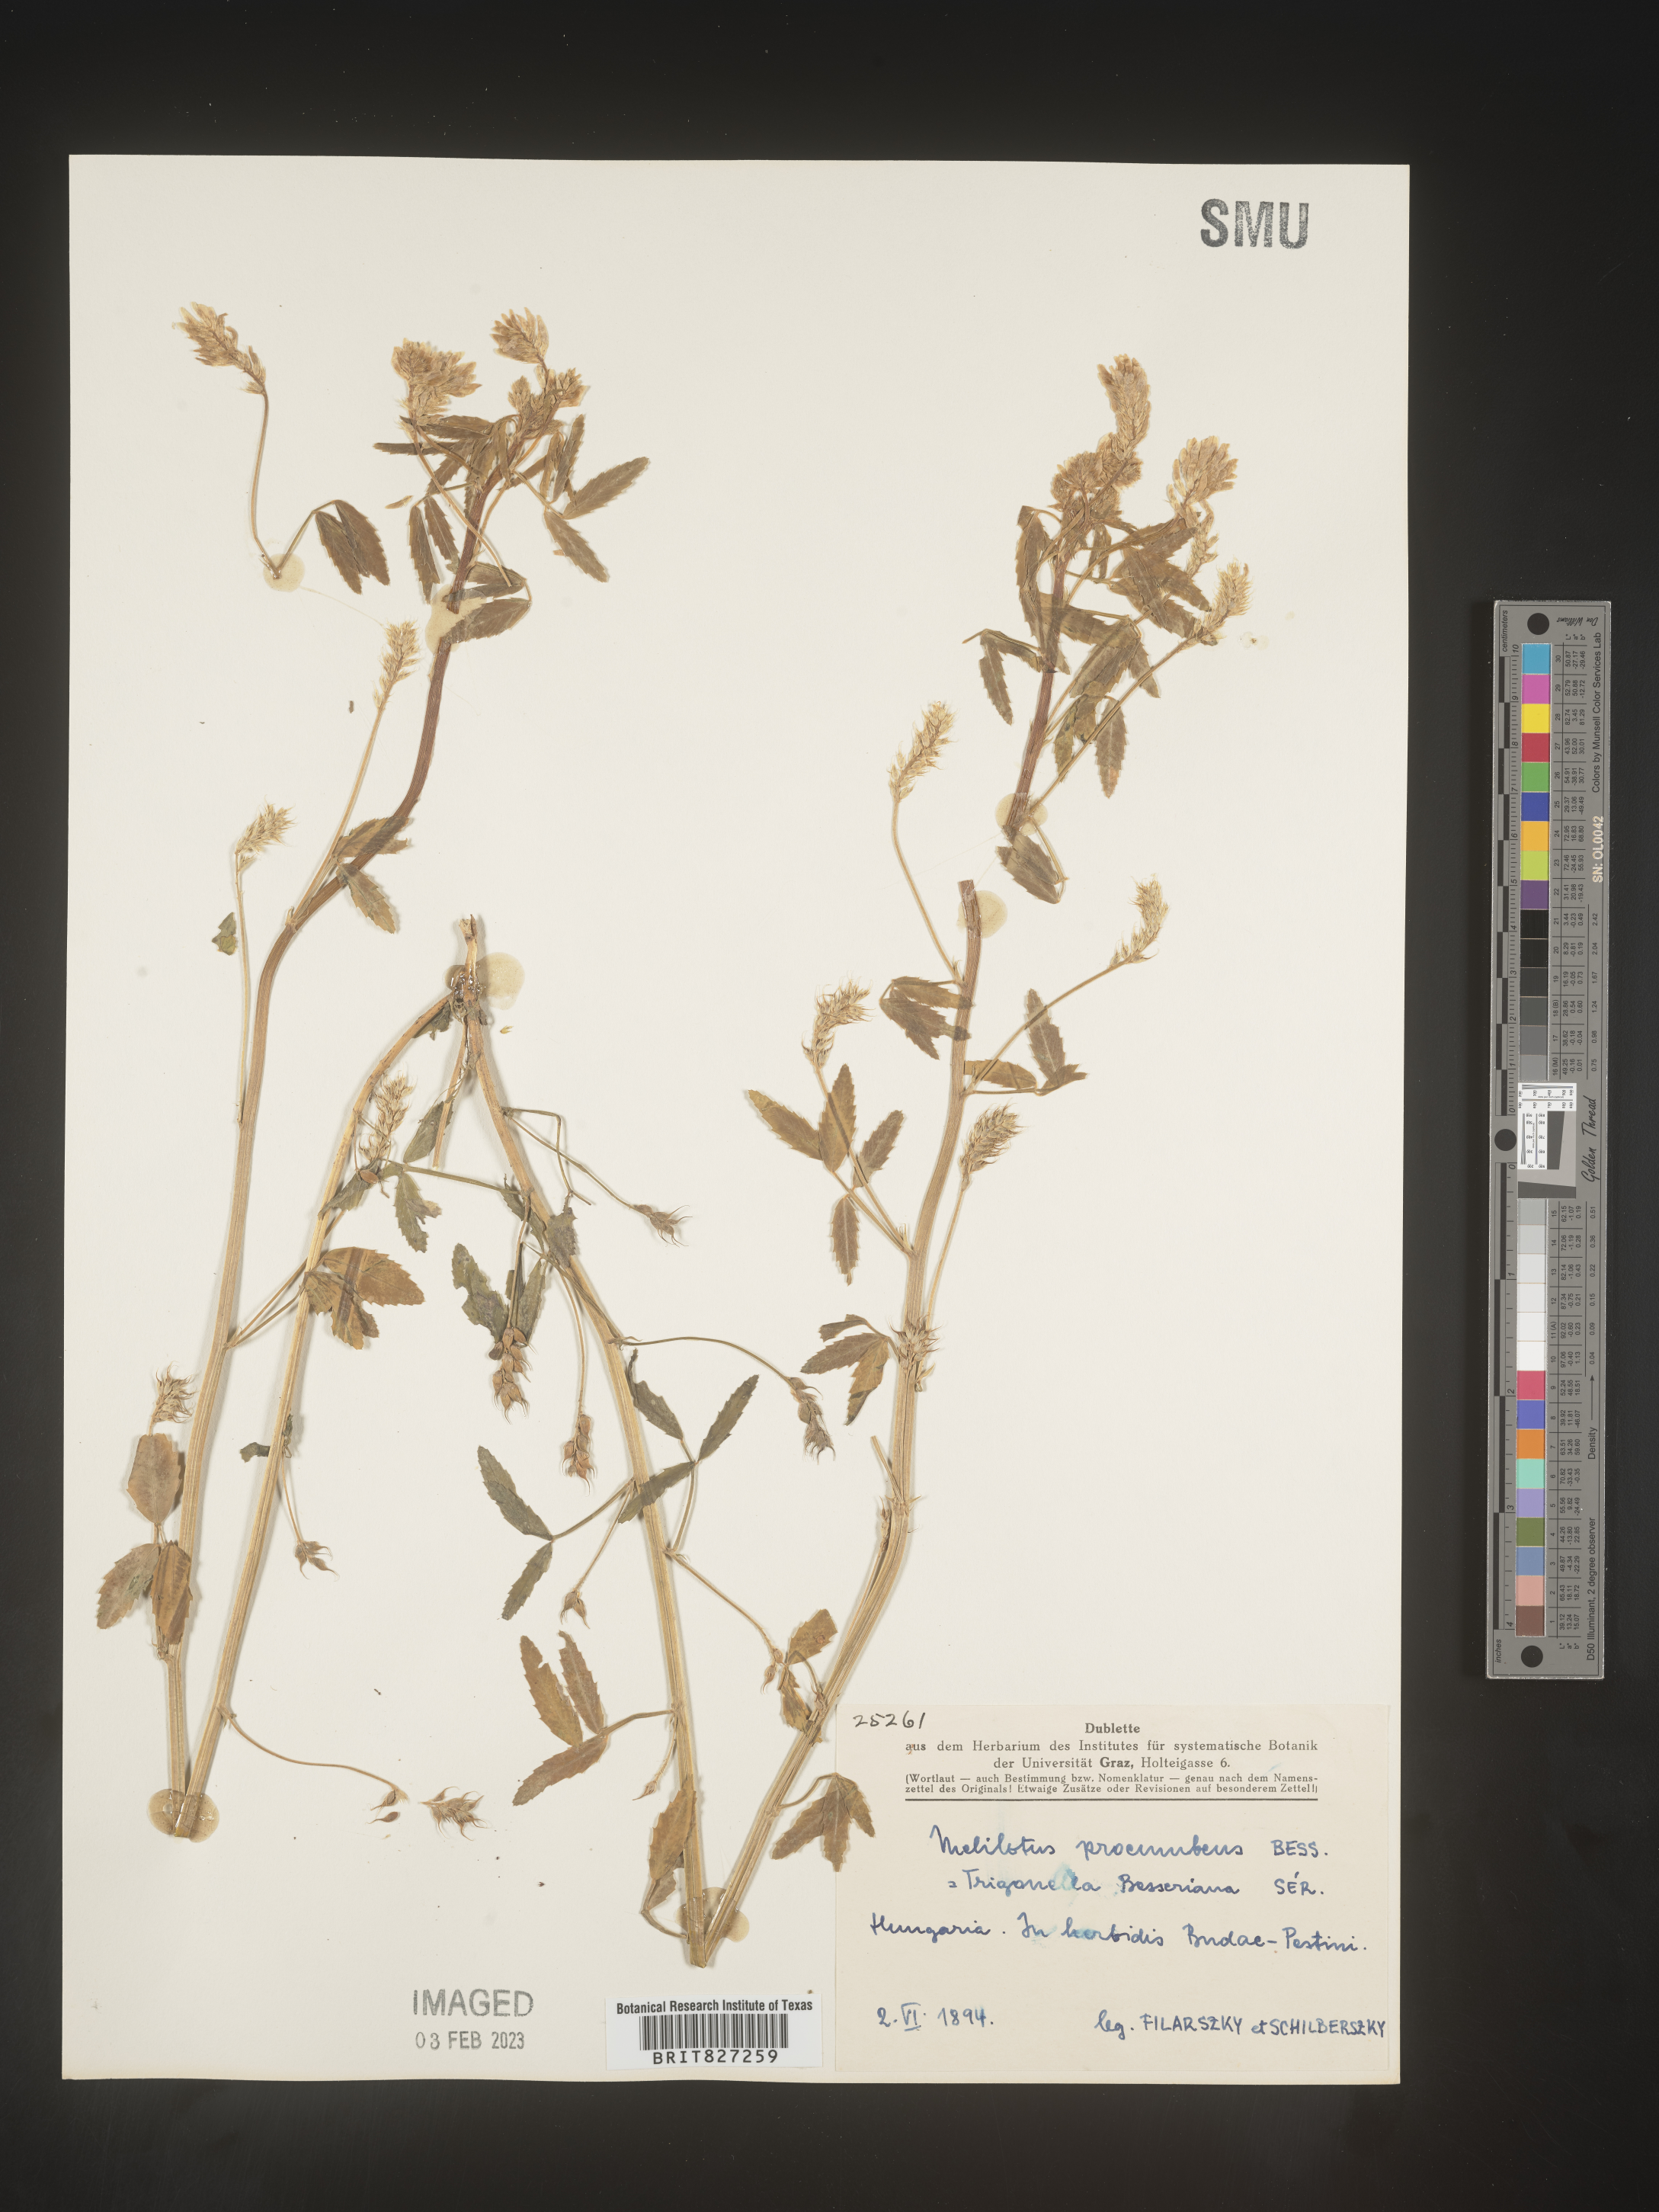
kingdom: Plantae
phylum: Tracheophyta
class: Magnoliopsida
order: Fabales
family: Fabaceae
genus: Melilotus
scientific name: Melilotus
